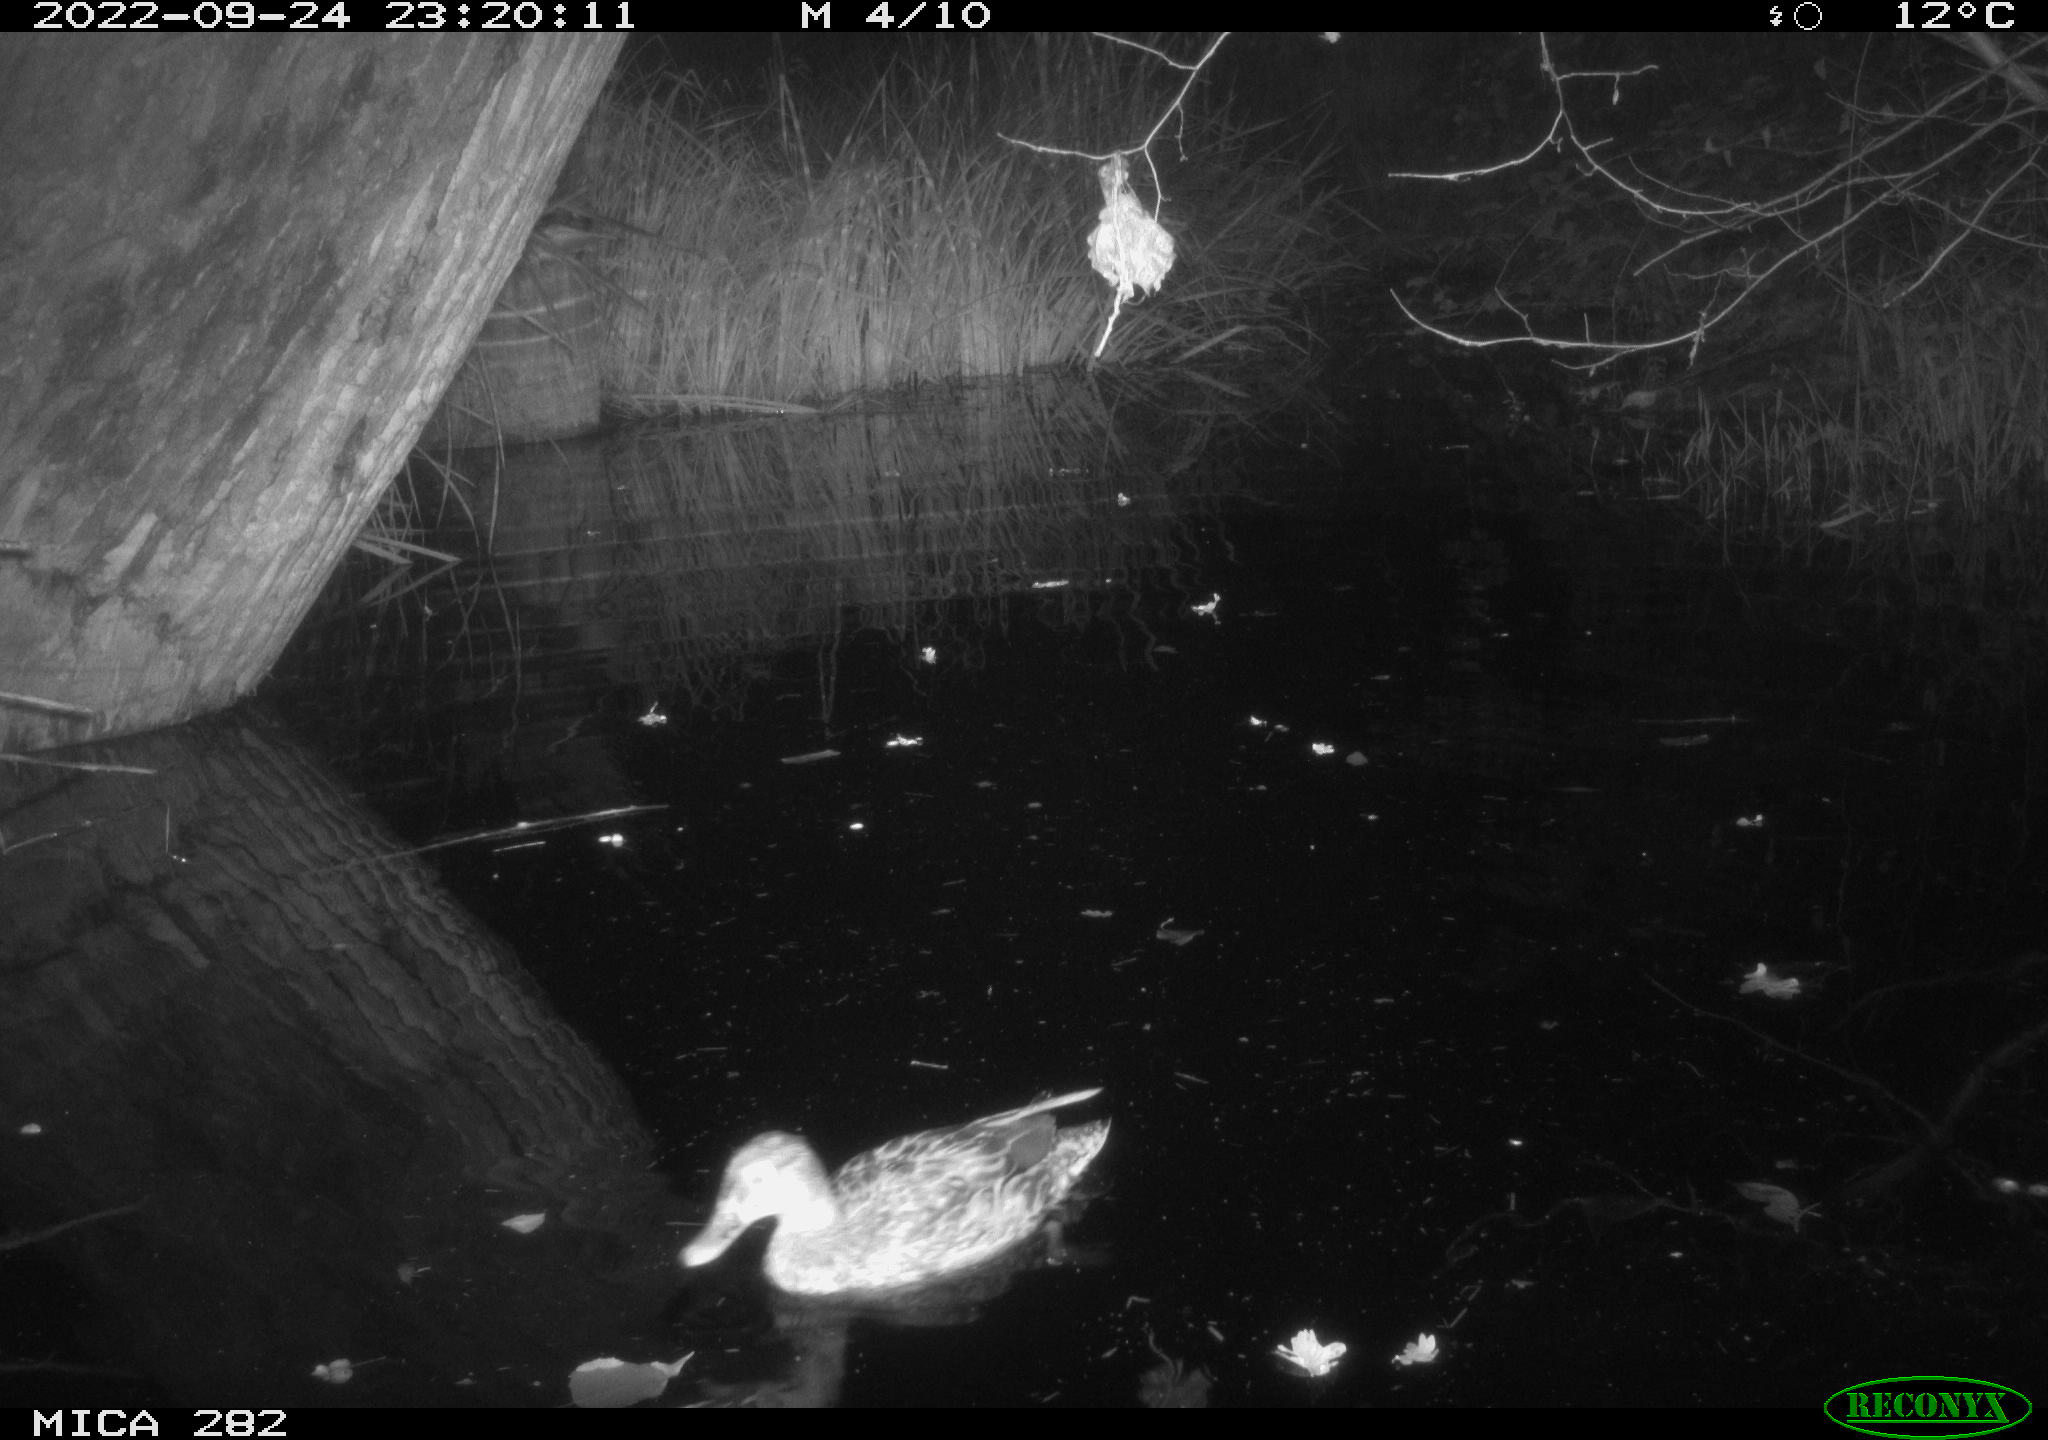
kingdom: Animalia
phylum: Chordata
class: Aves
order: Anseriformes
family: Anatidae
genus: Anas
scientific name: Anas
